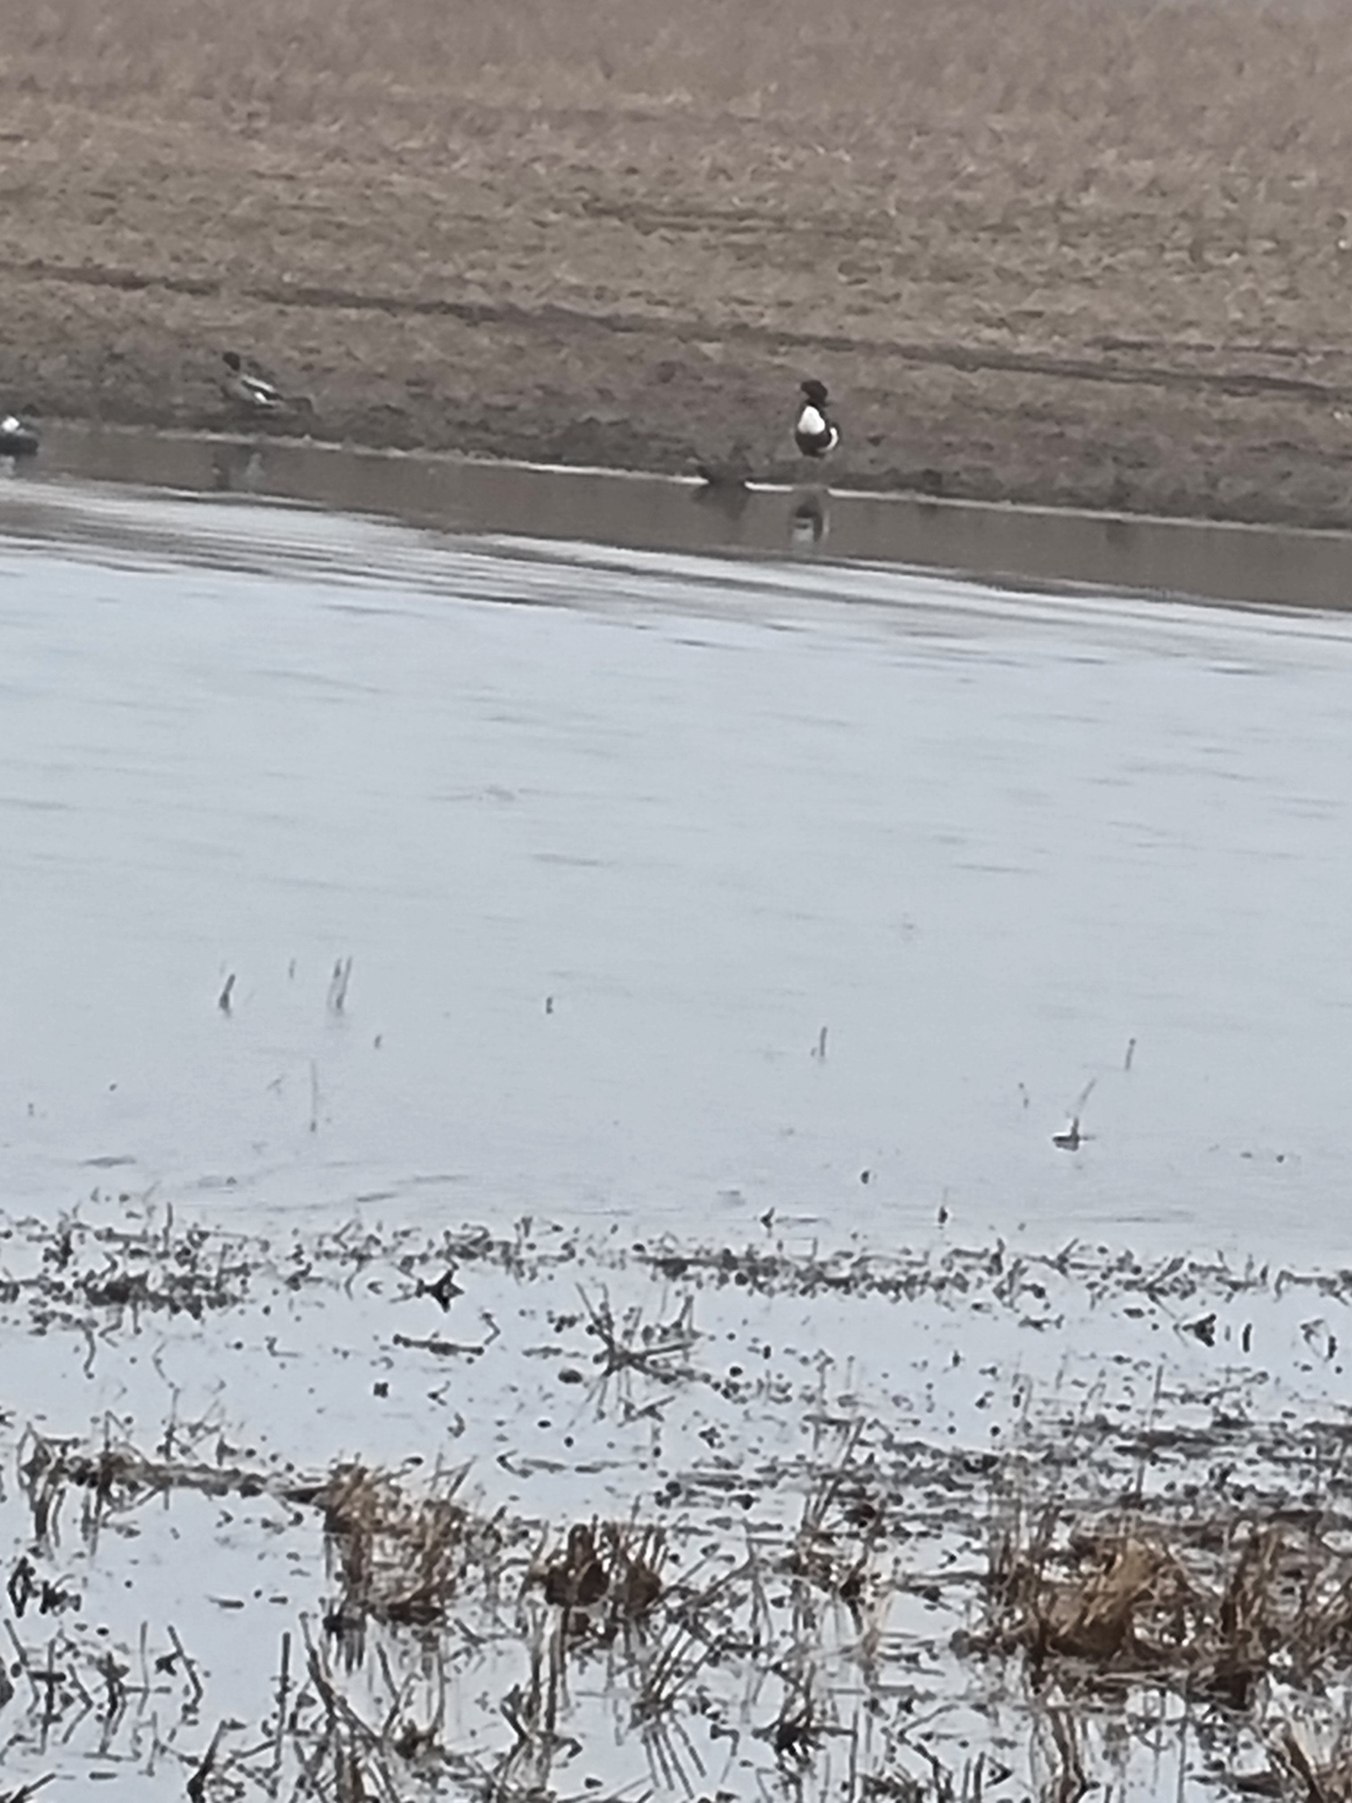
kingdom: Animalia
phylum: Chordata
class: Aves
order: Anseriformes
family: Anatidae
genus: Tadorna
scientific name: Tadorna tadorna
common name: Gravand
